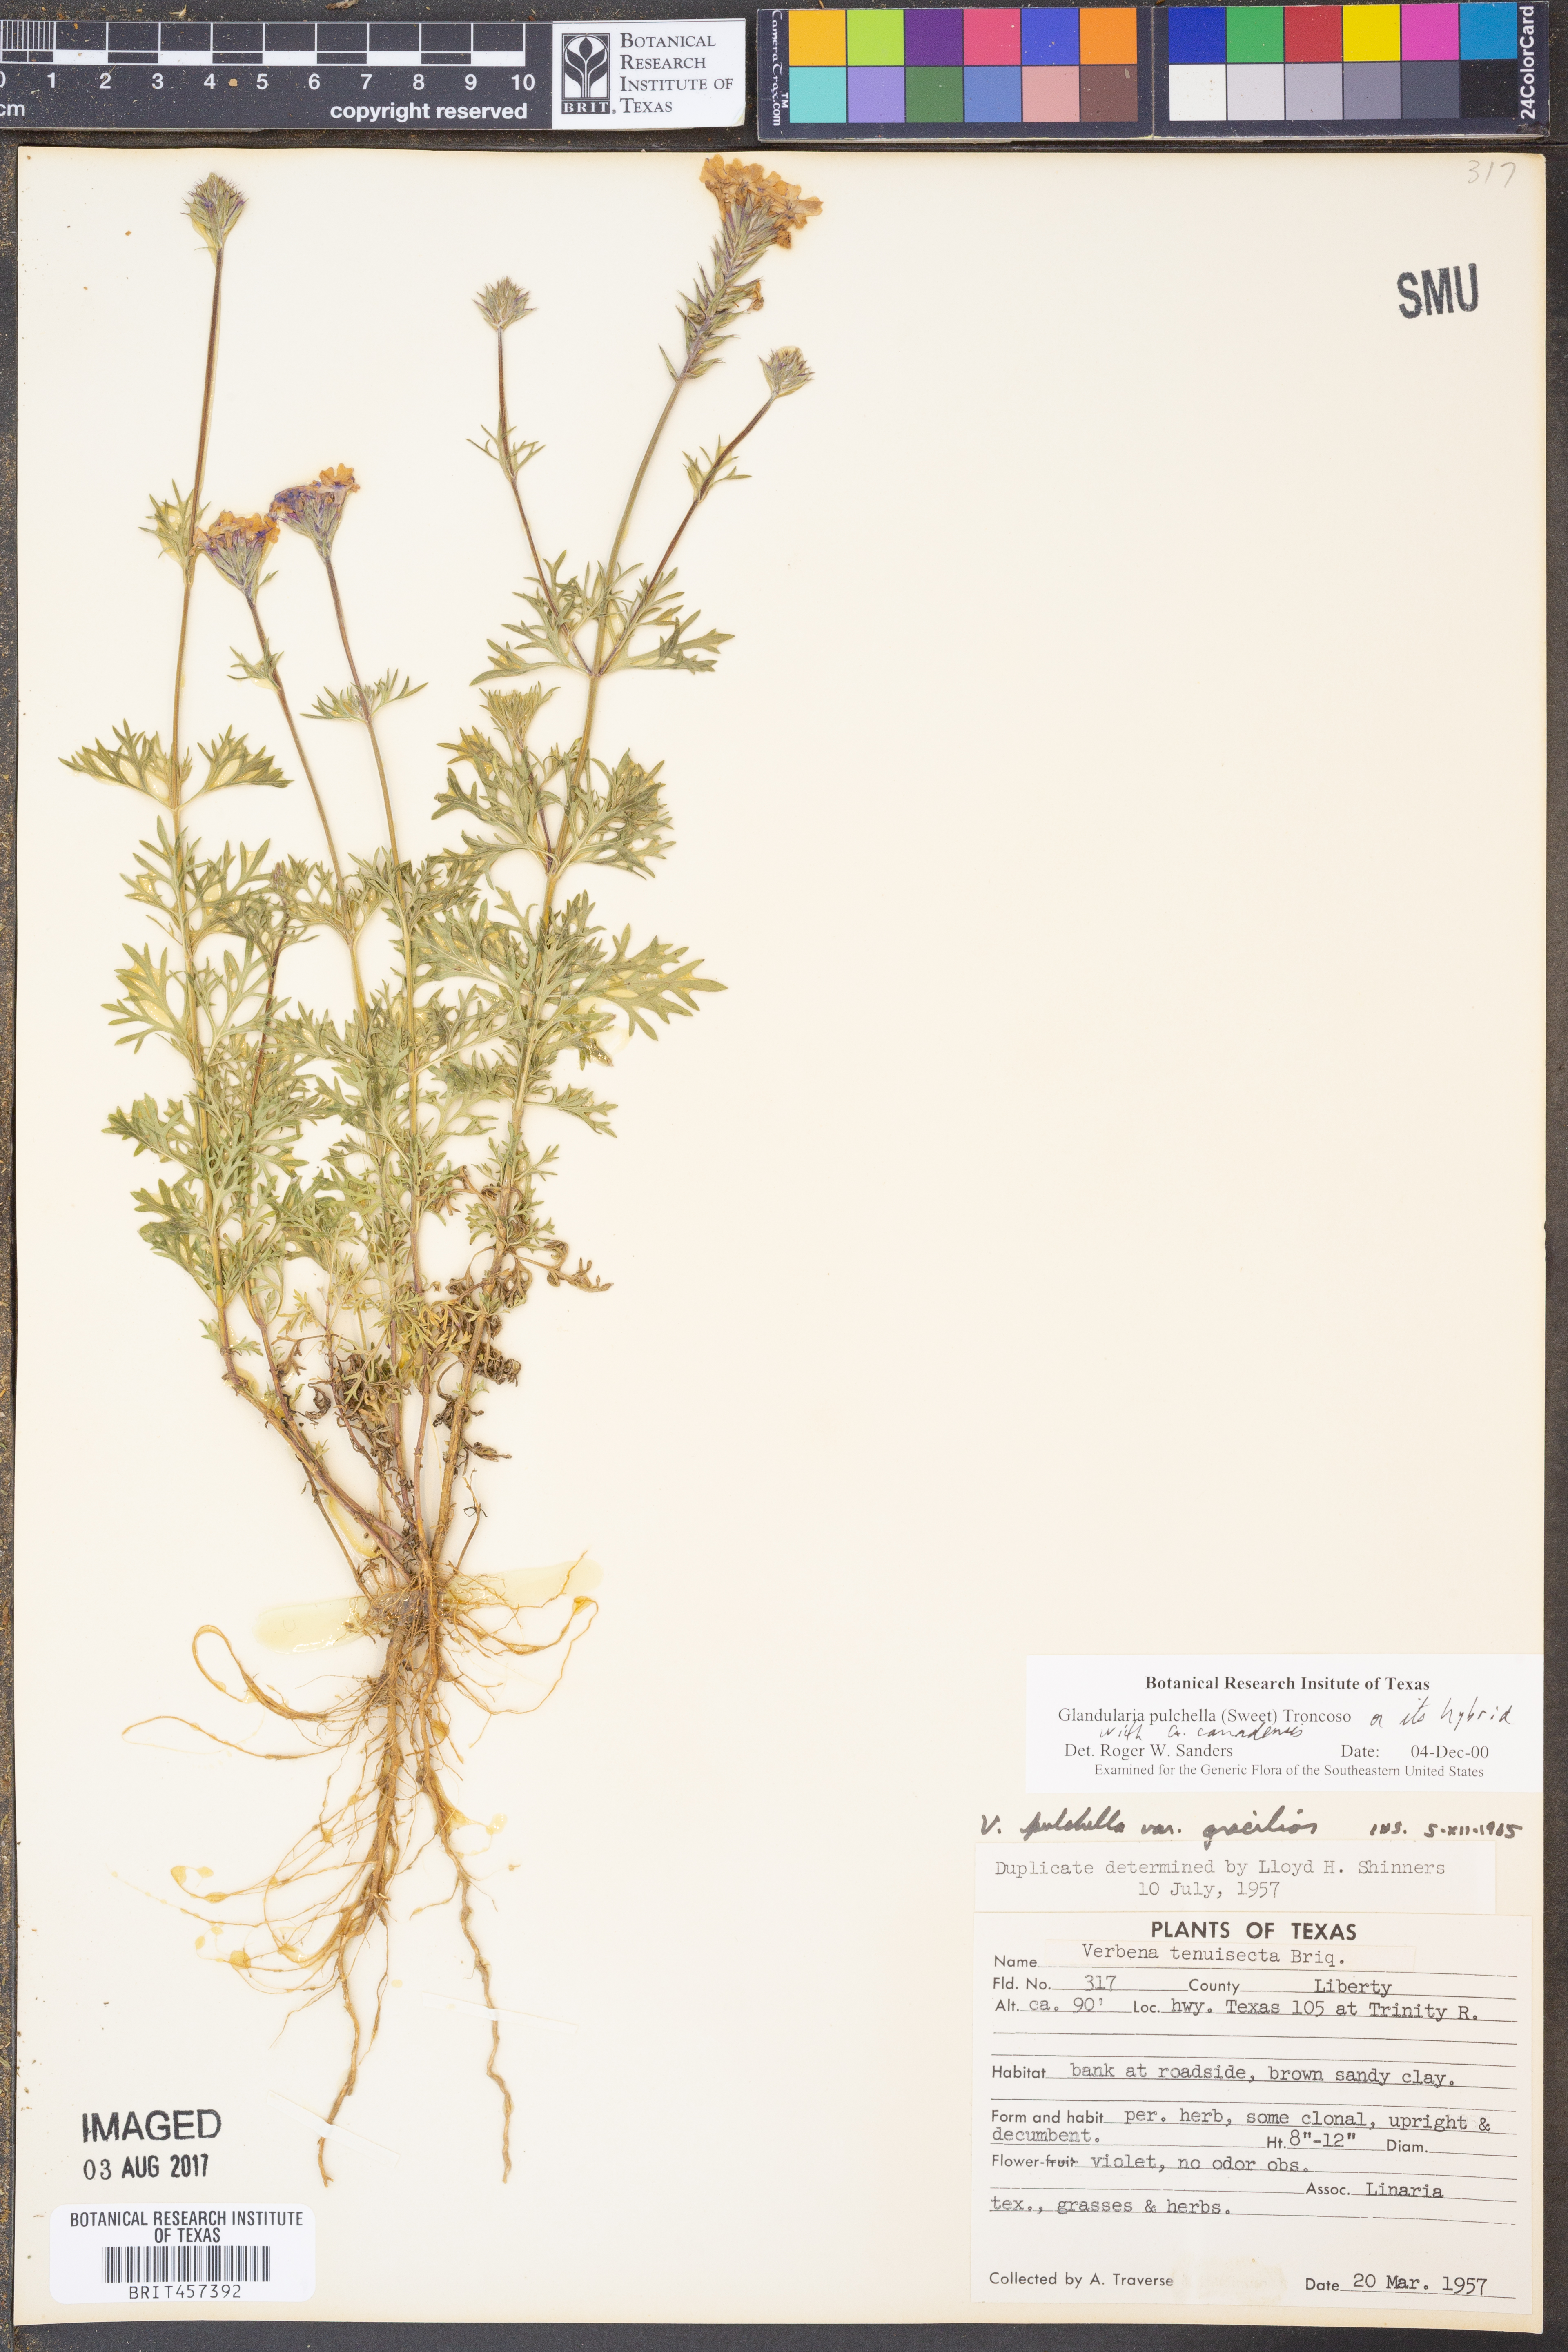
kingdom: Plantae
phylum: Tracheophyta
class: Magnoliopsida
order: Lamiales
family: Verbenaceae
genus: Verbena
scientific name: Verbena tenera
